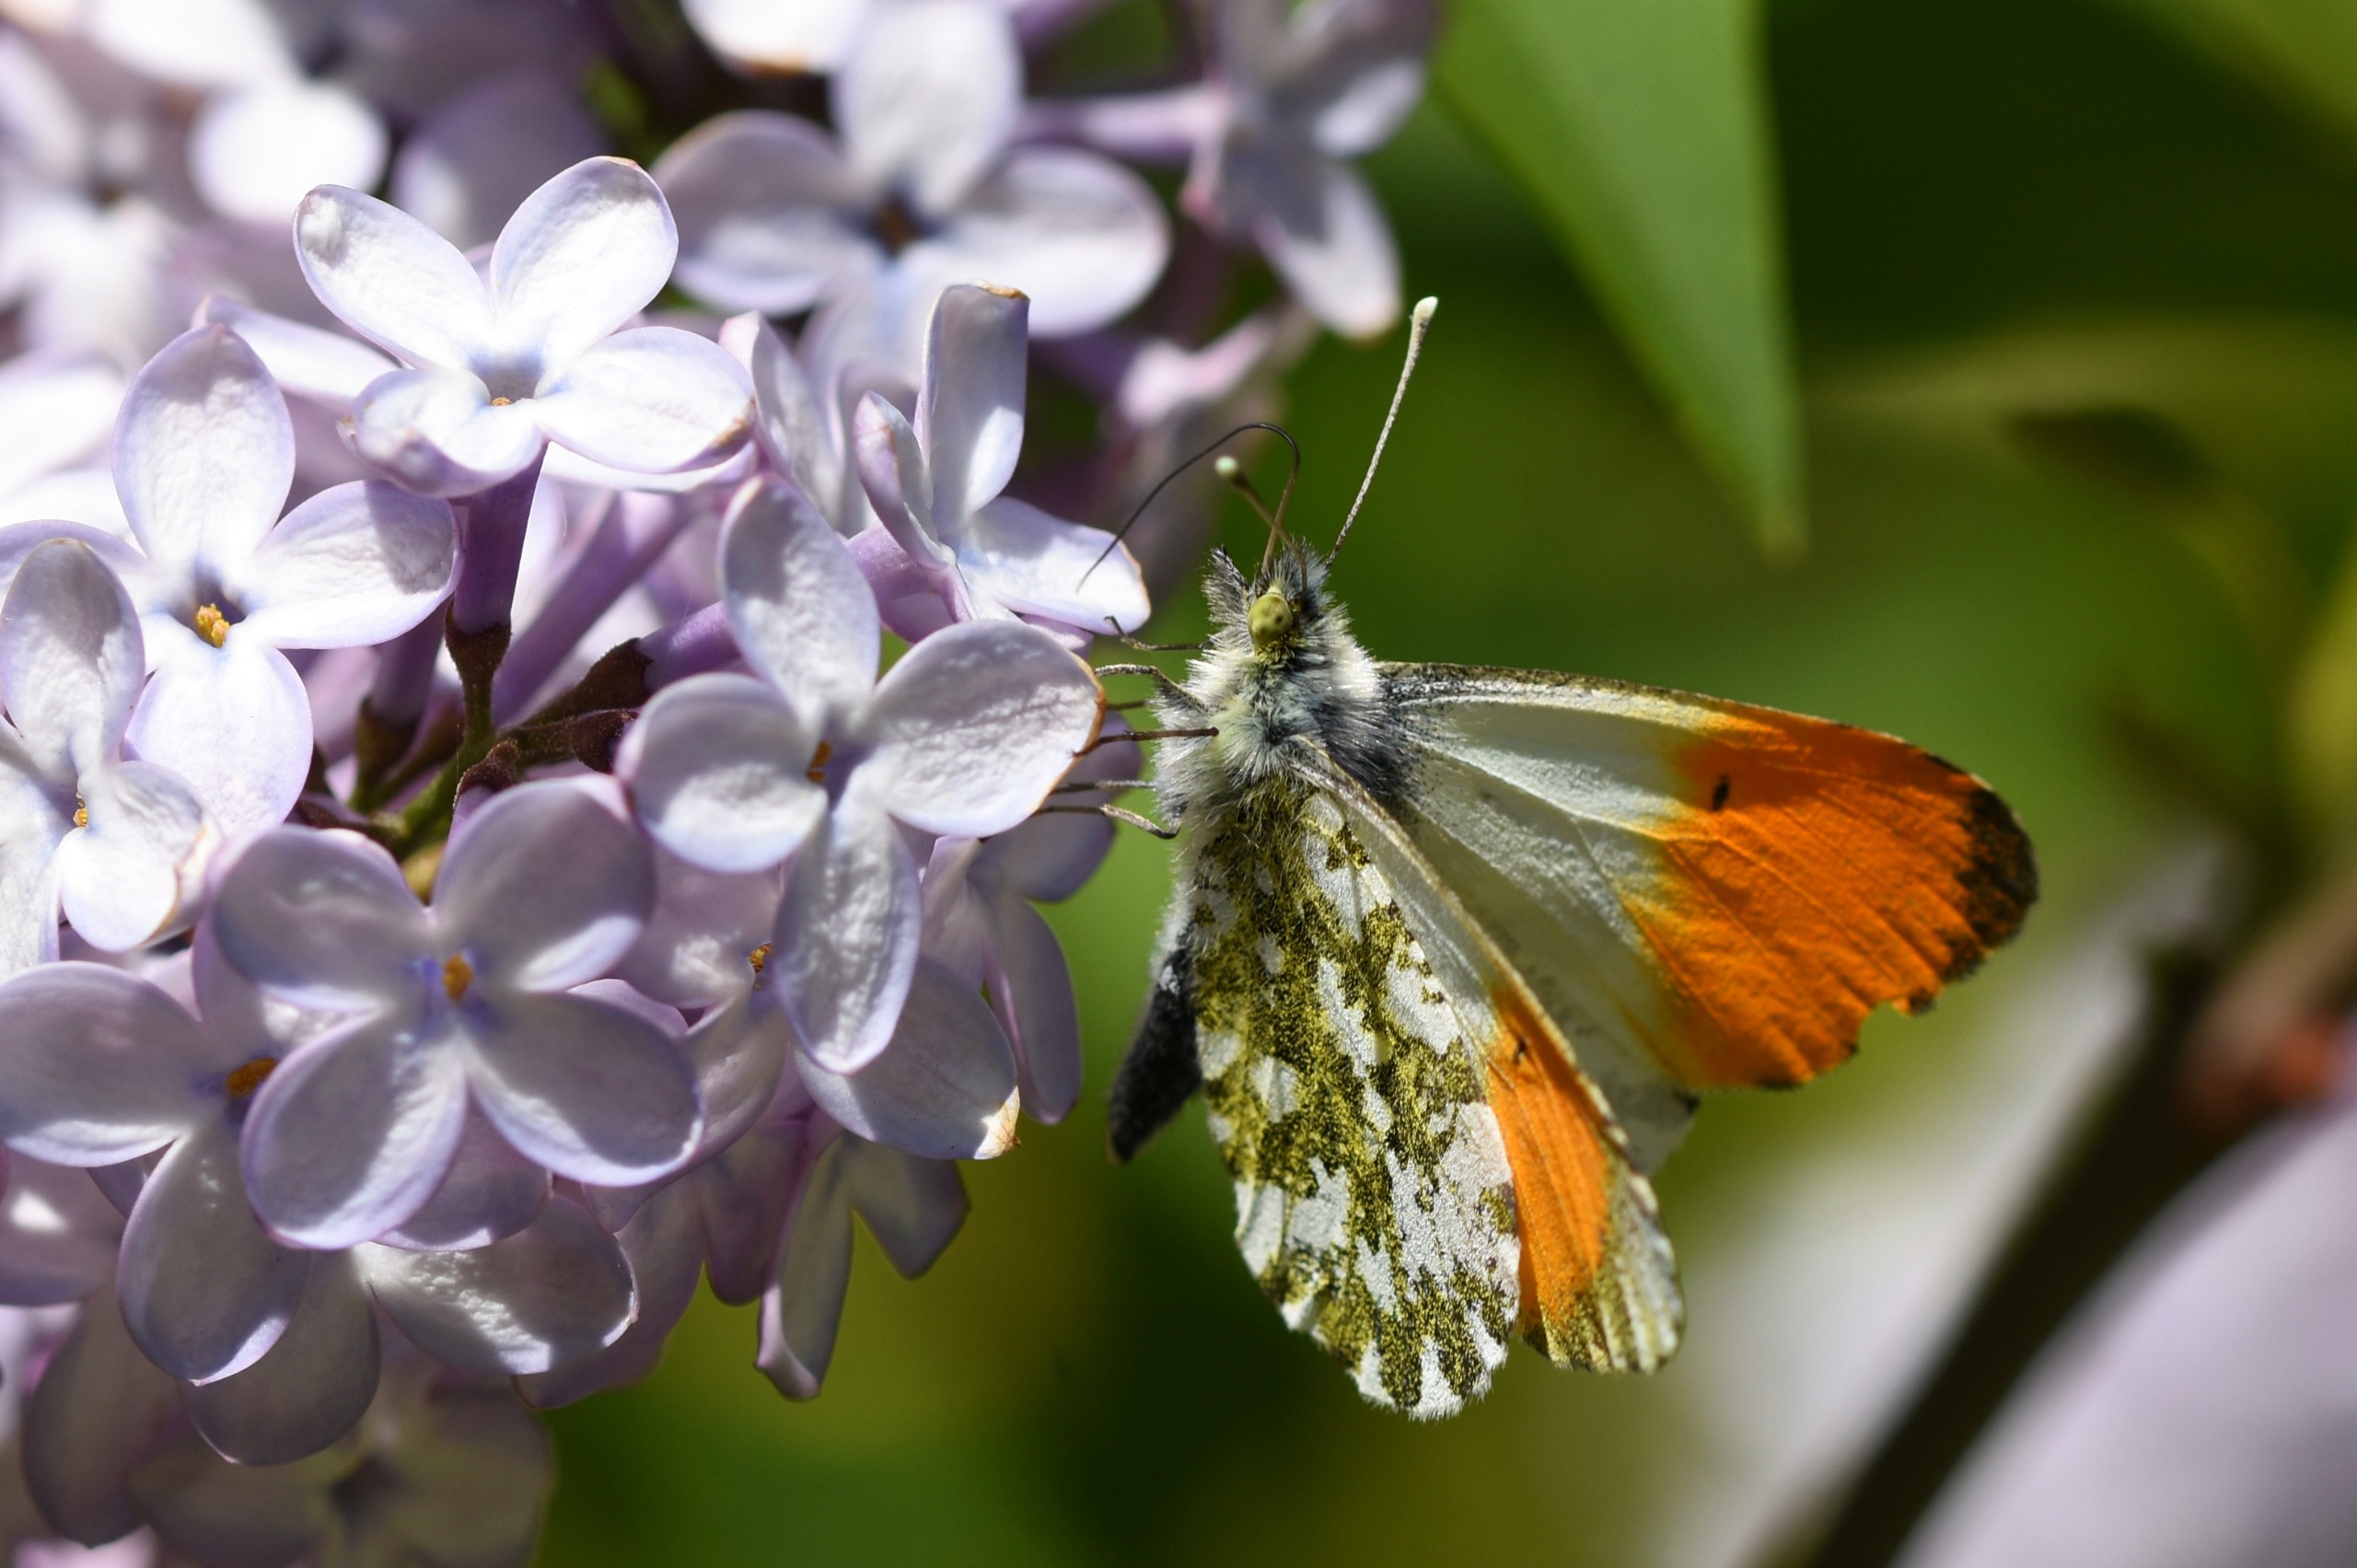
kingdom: Animalia
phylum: Arthropoda
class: Insecta
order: Lepidoptera
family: Pieridae
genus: Anthocharis
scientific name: Anthocharis cardamines
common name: Aurora
